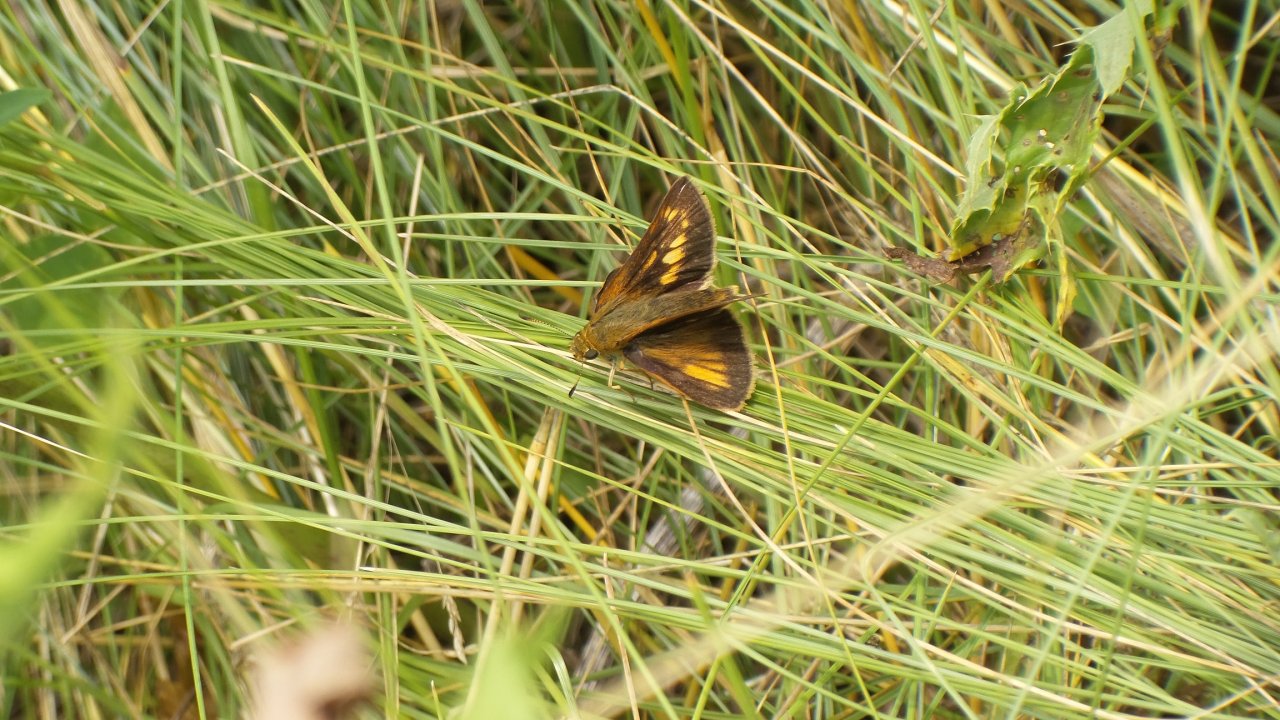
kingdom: Animalia
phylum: Arthropoda
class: Insecta
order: Lepidoptera
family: Hesperiidae
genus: Polites
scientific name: Polites
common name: Long Dash Skipper
